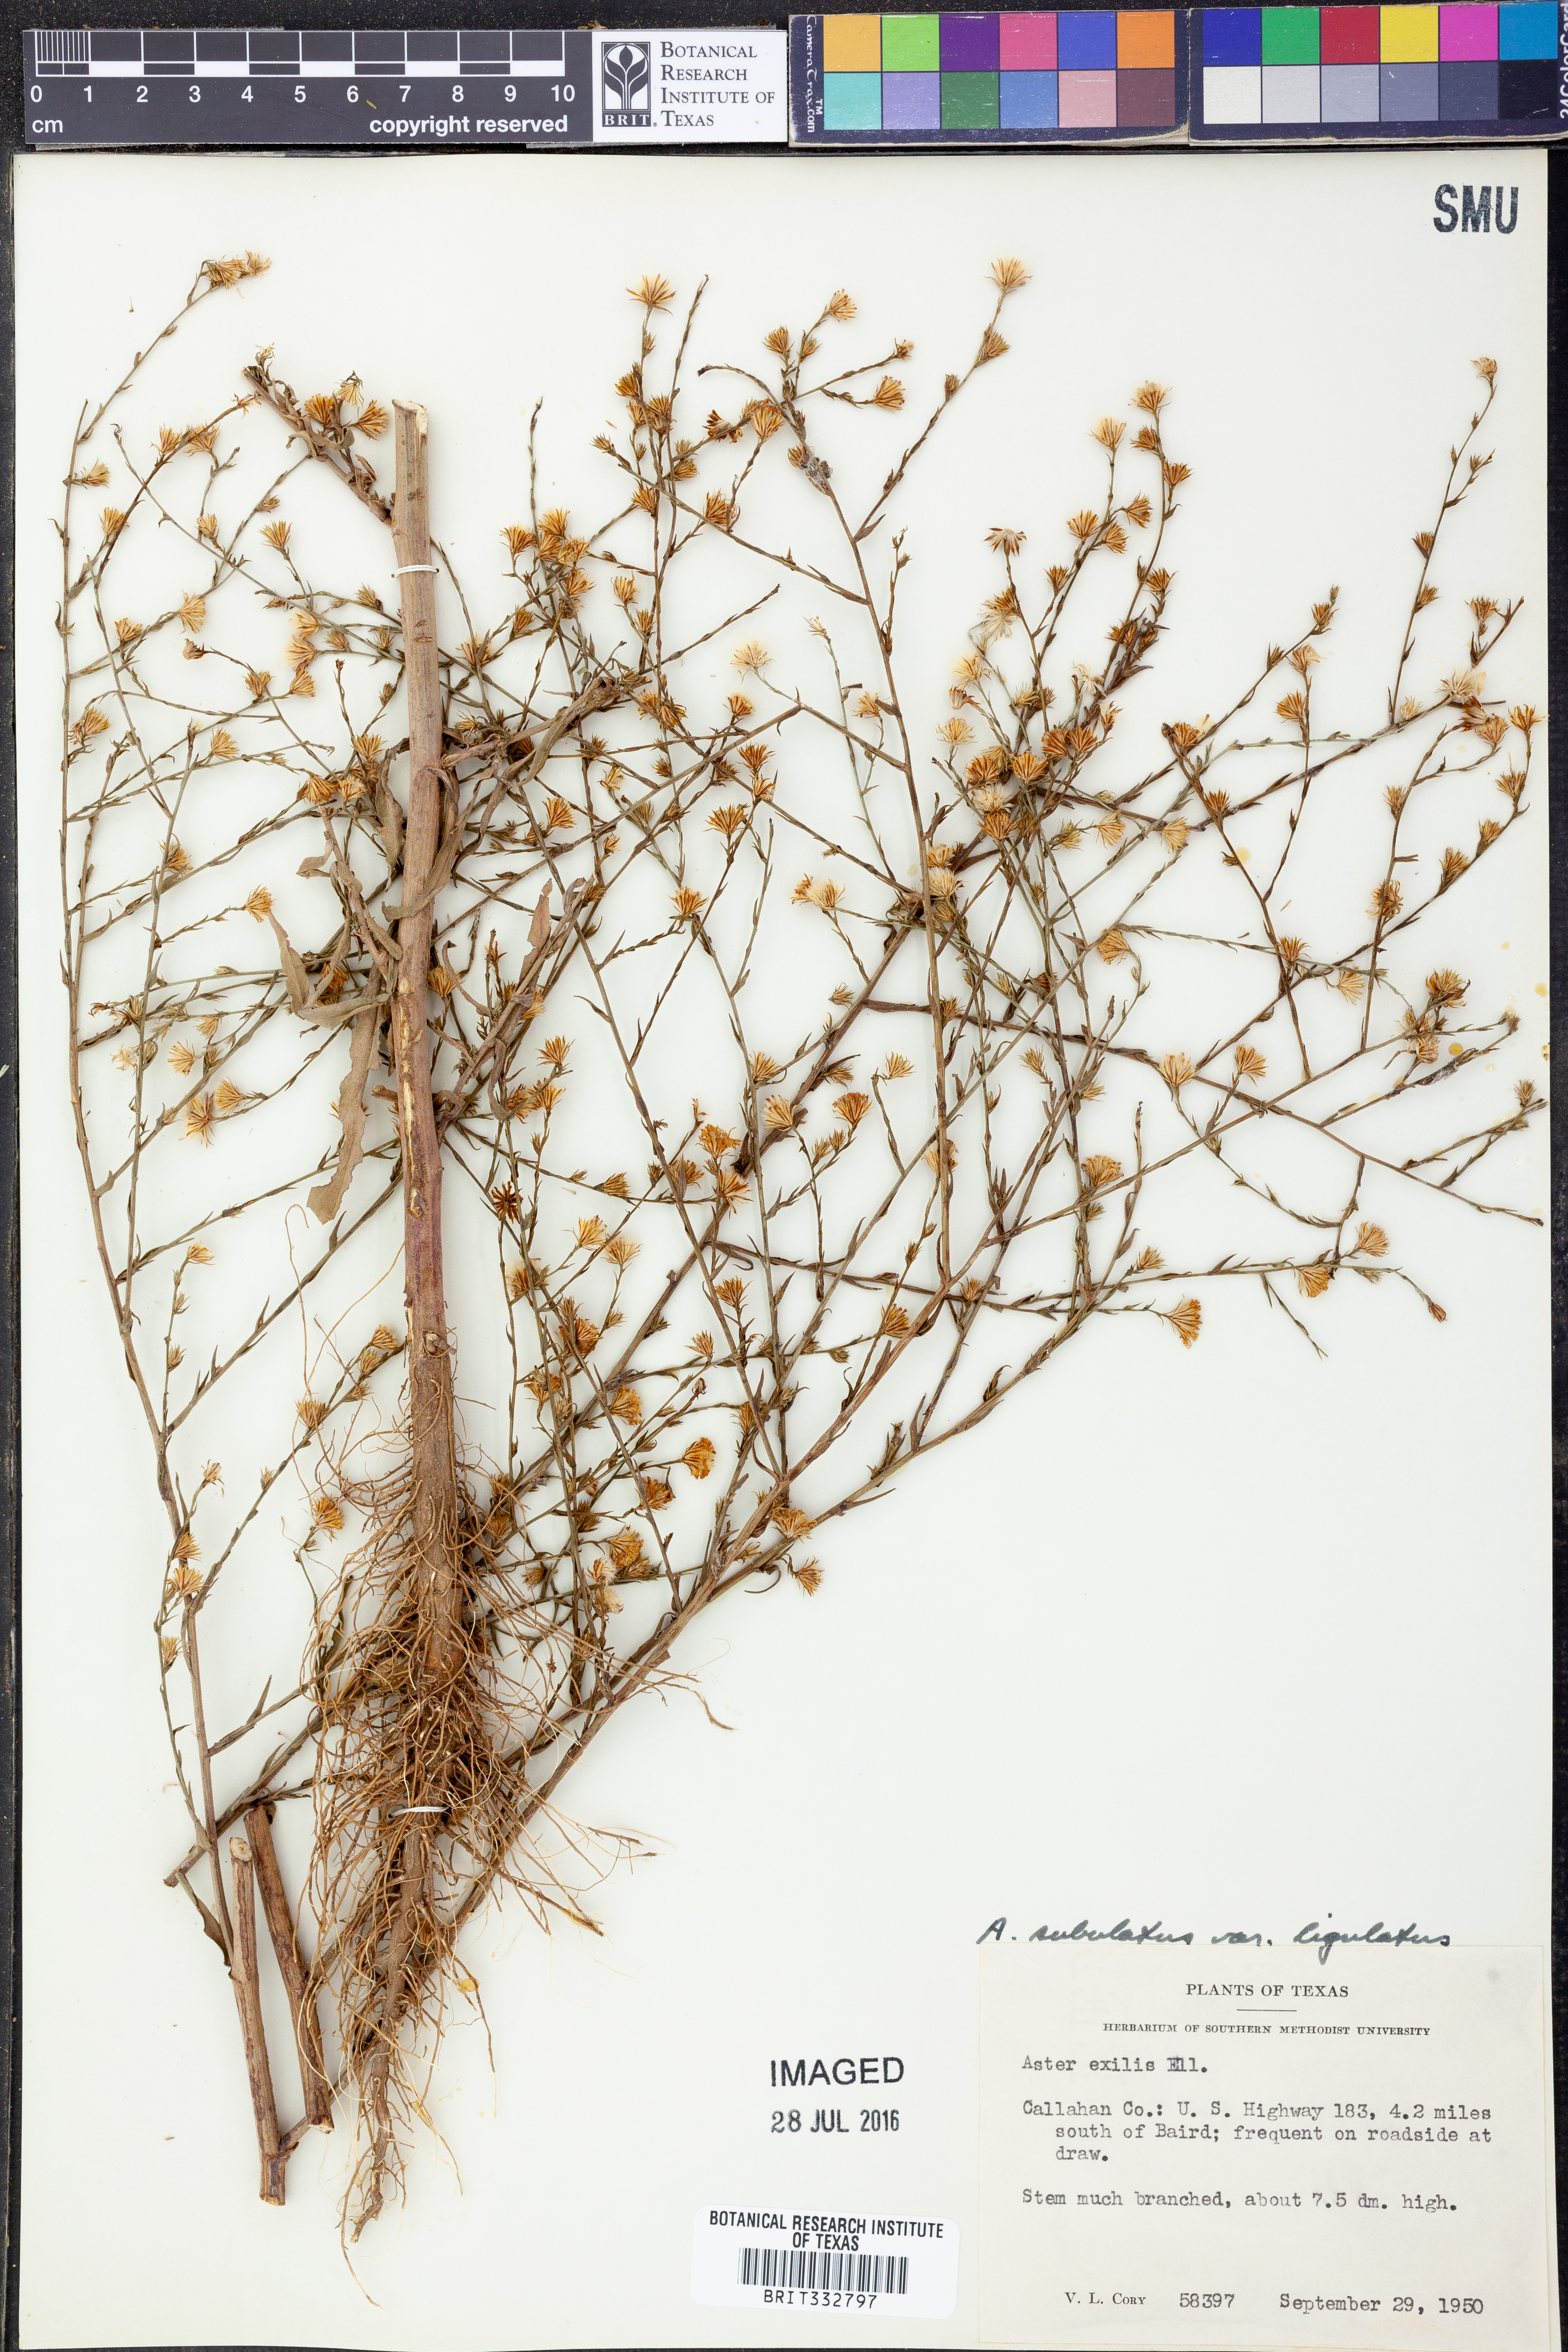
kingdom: Plantae
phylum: Tracheophyta
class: Magnoliopsida
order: Asterales
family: Asteraceae
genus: Symphyotrichum
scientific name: Symphyotrichum divaricatum
